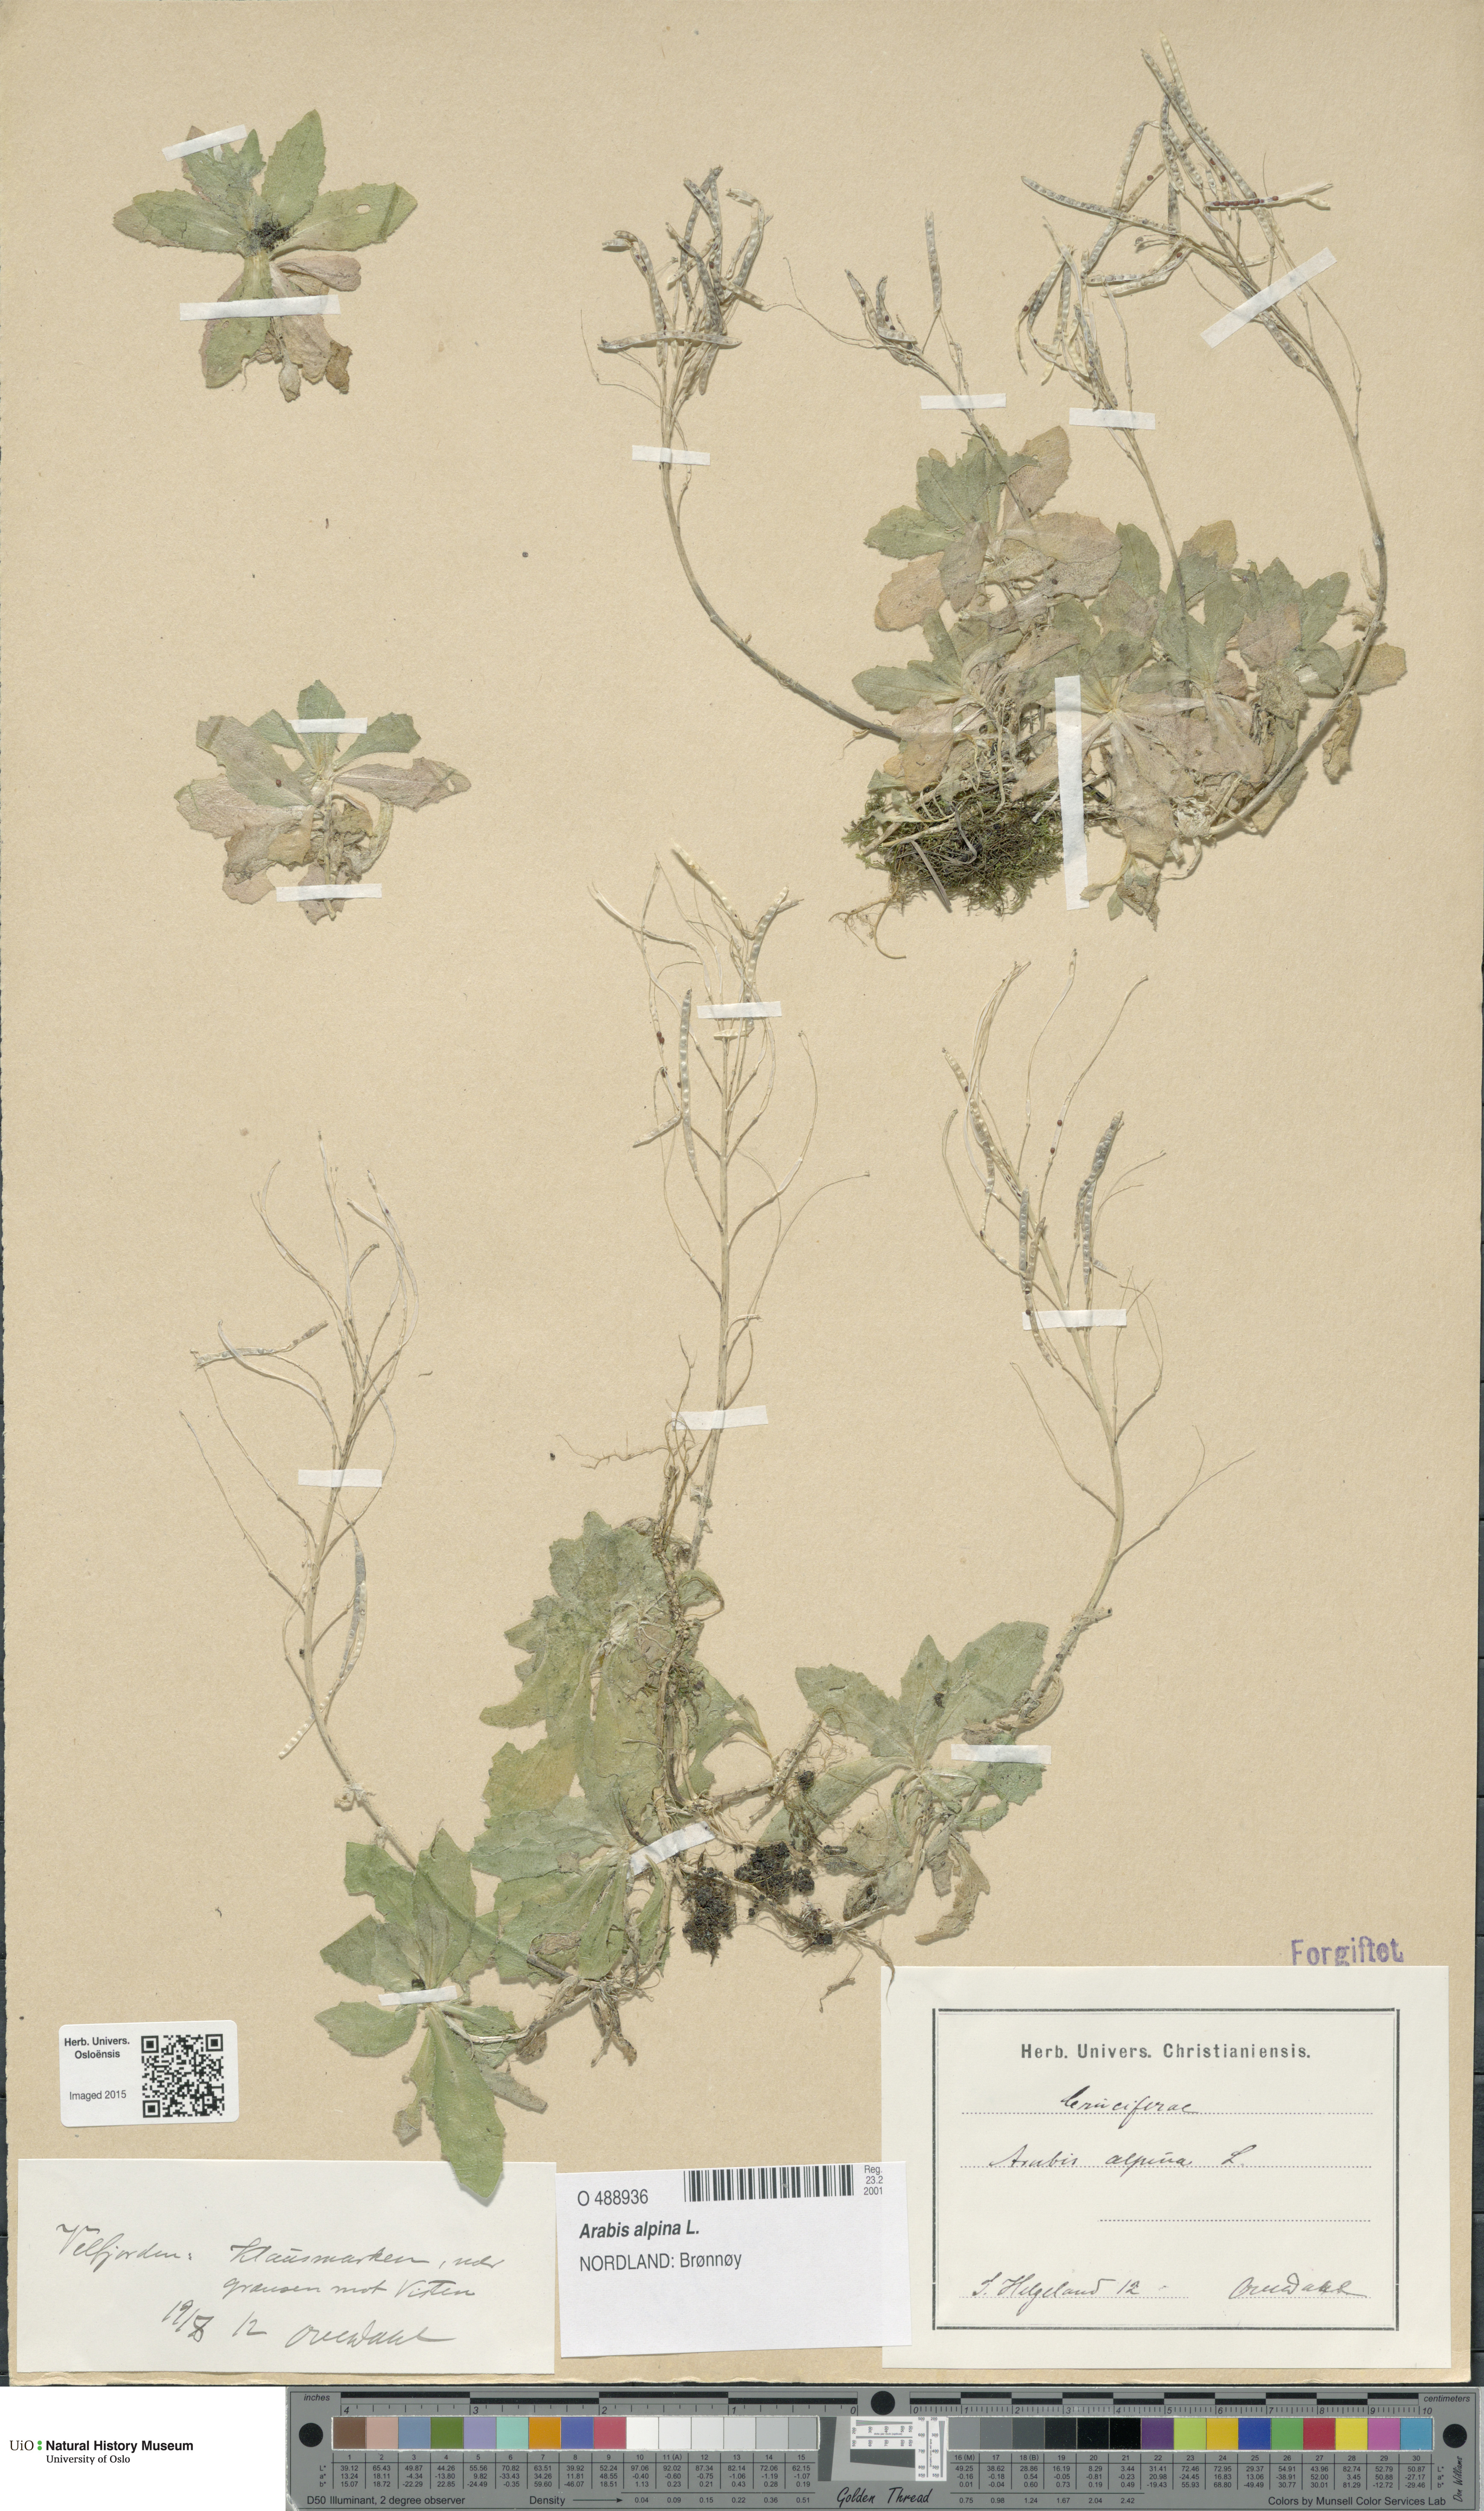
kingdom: Plantae
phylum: Tracheophyta
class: Magnoliopsida
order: Brassicales
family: Brassicaceae
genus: Arabis
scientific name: Arabis alpina
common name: Alpine rock-cress
